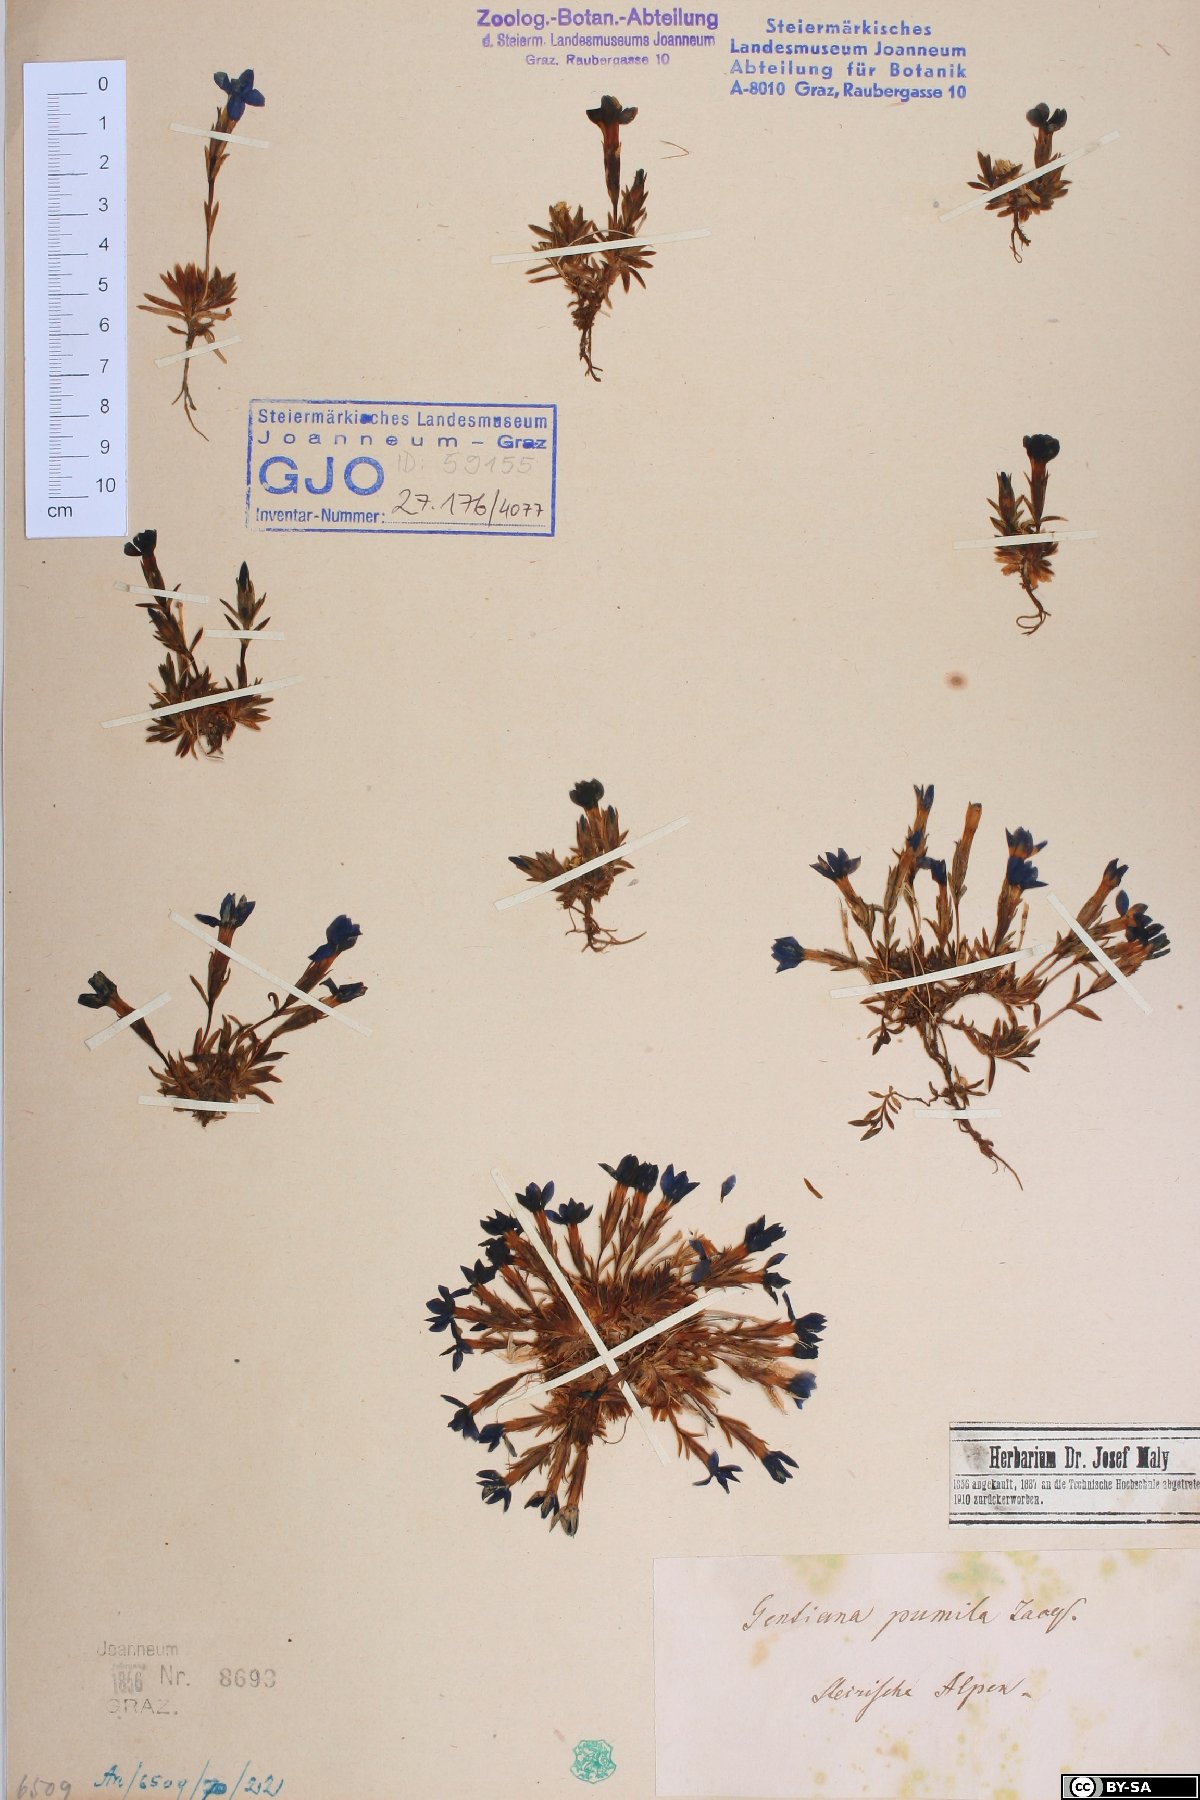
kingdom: Plantae
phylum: Tracheophyta
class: Magnoliopsida
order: Gentianales
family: Gentianaceae
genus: Gentiana
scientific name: Gentiana pumila
